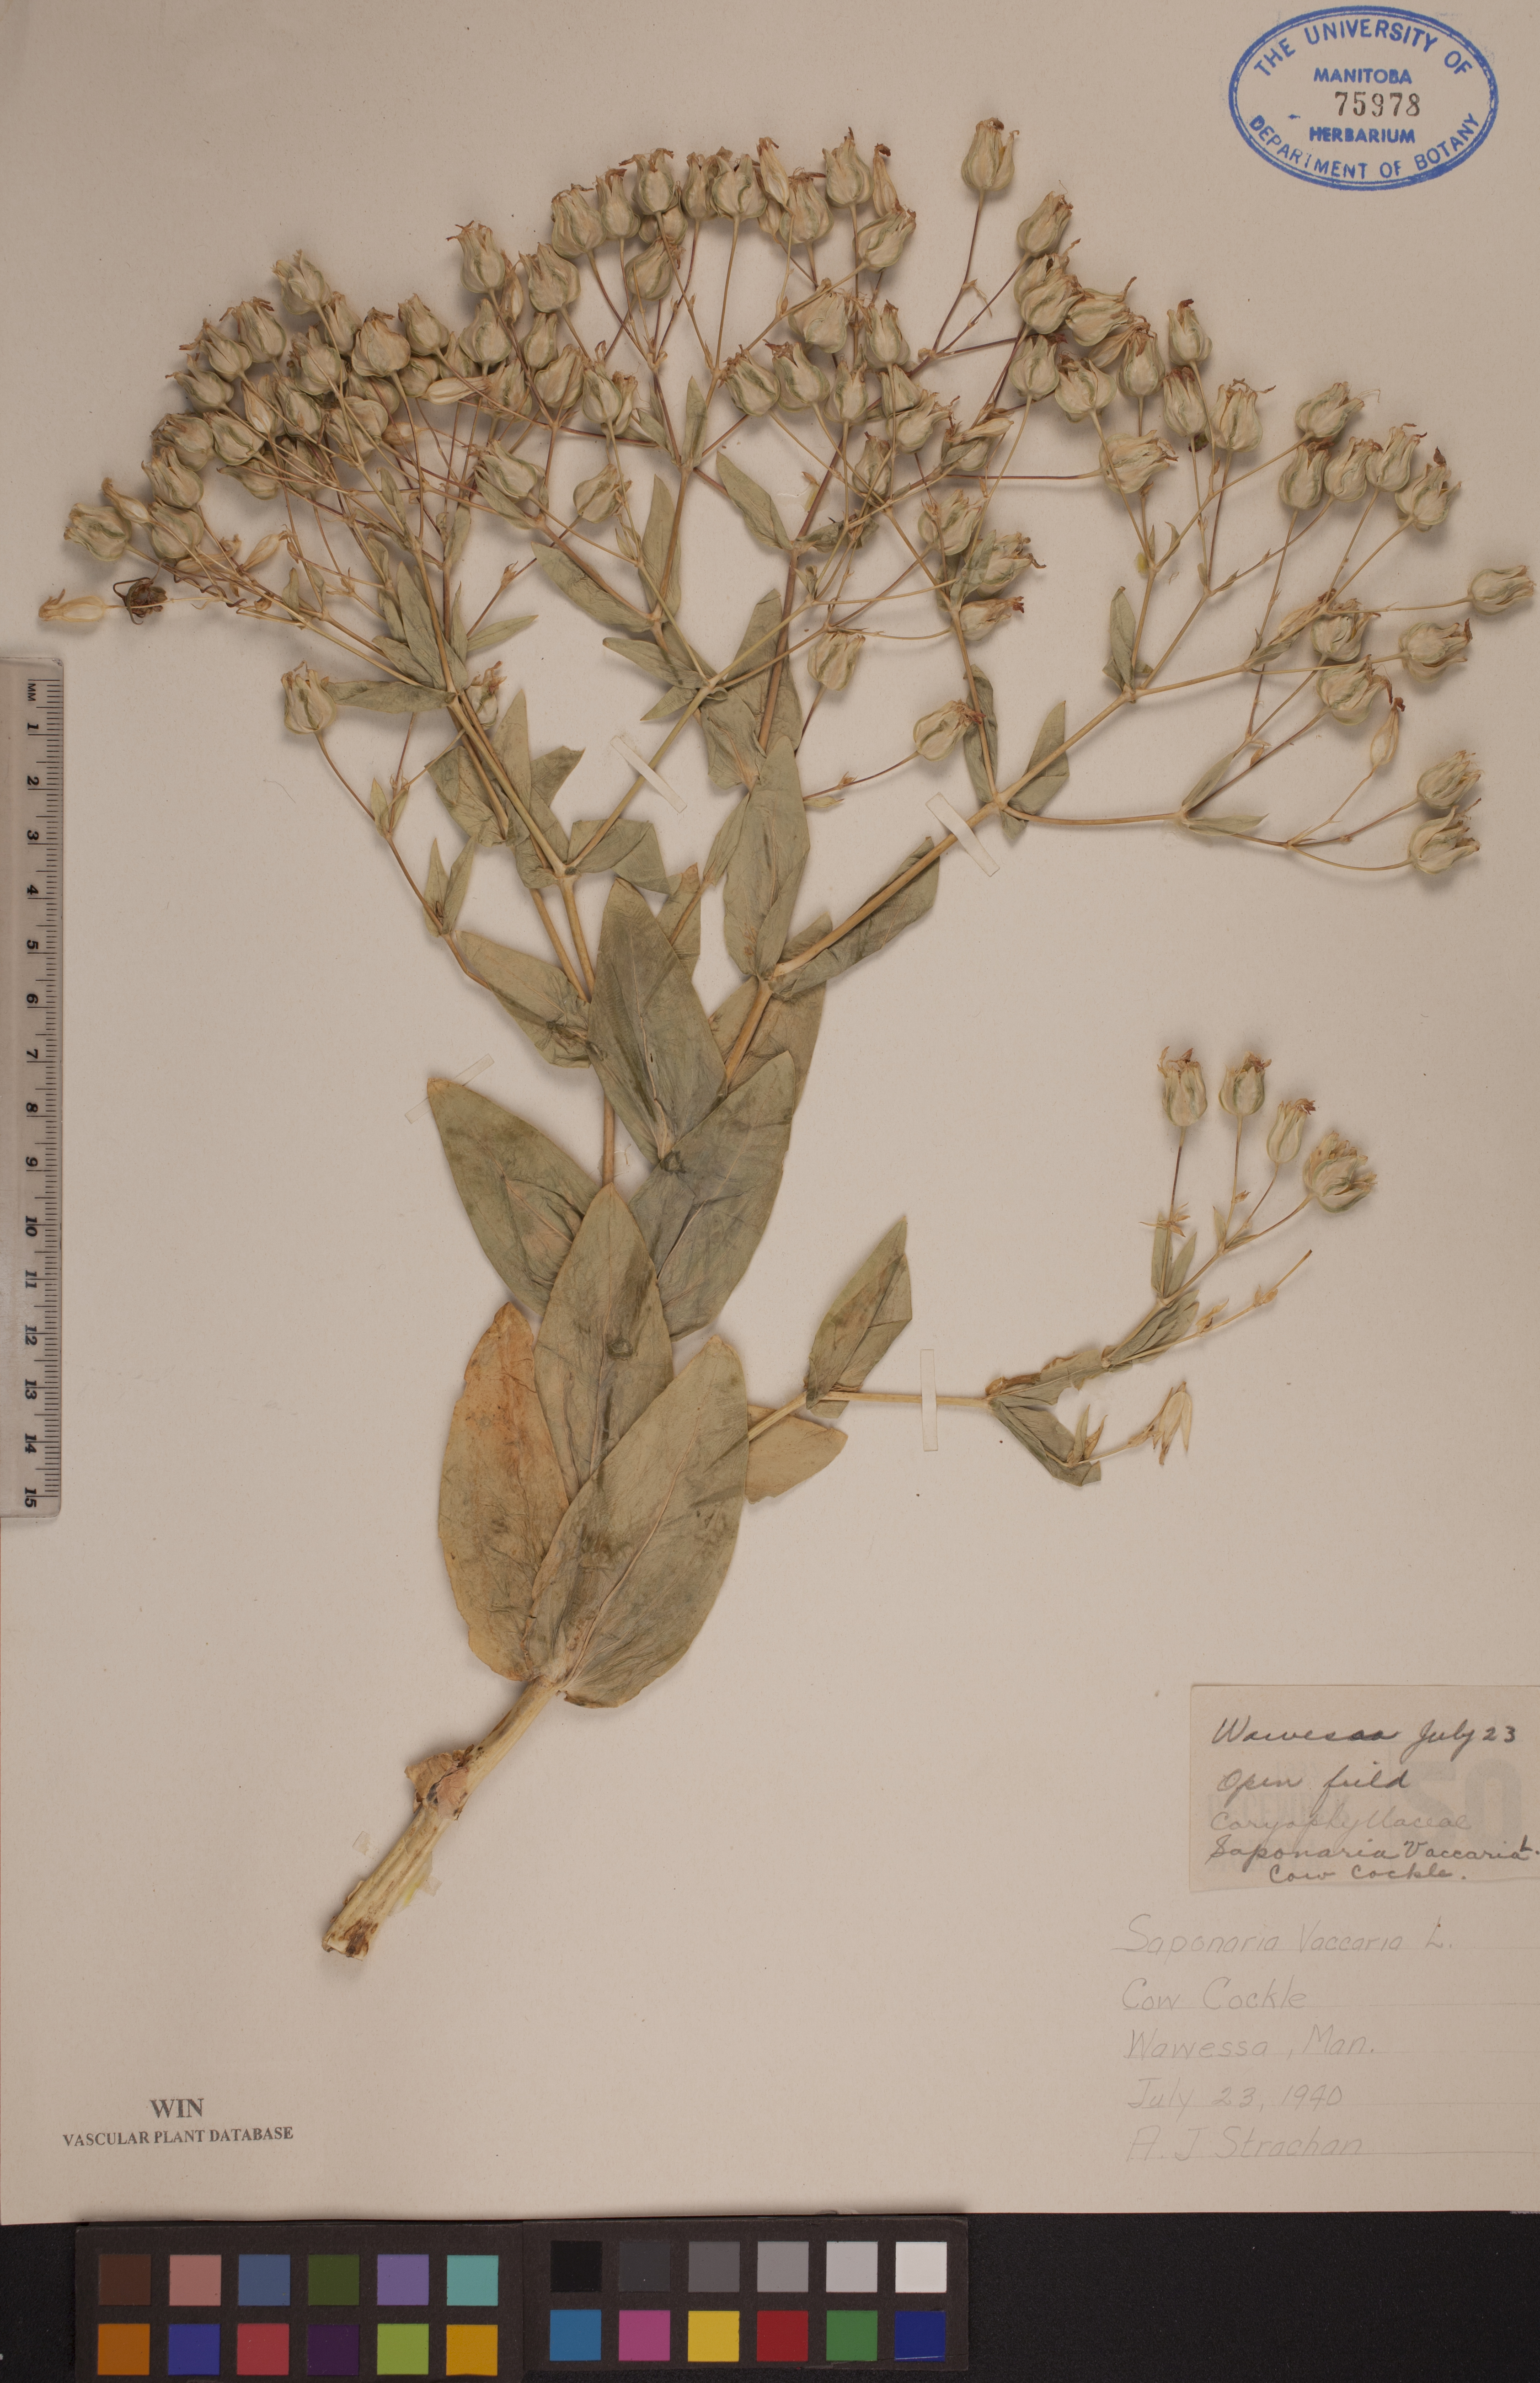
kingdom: Plantae
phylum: Tracheophyta
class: Magnoliopsida
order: Caryophyllales
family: Caryophyllaceae
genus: Gypsophila
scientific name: Gypsophila vaccaria
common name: Cow soapwort
